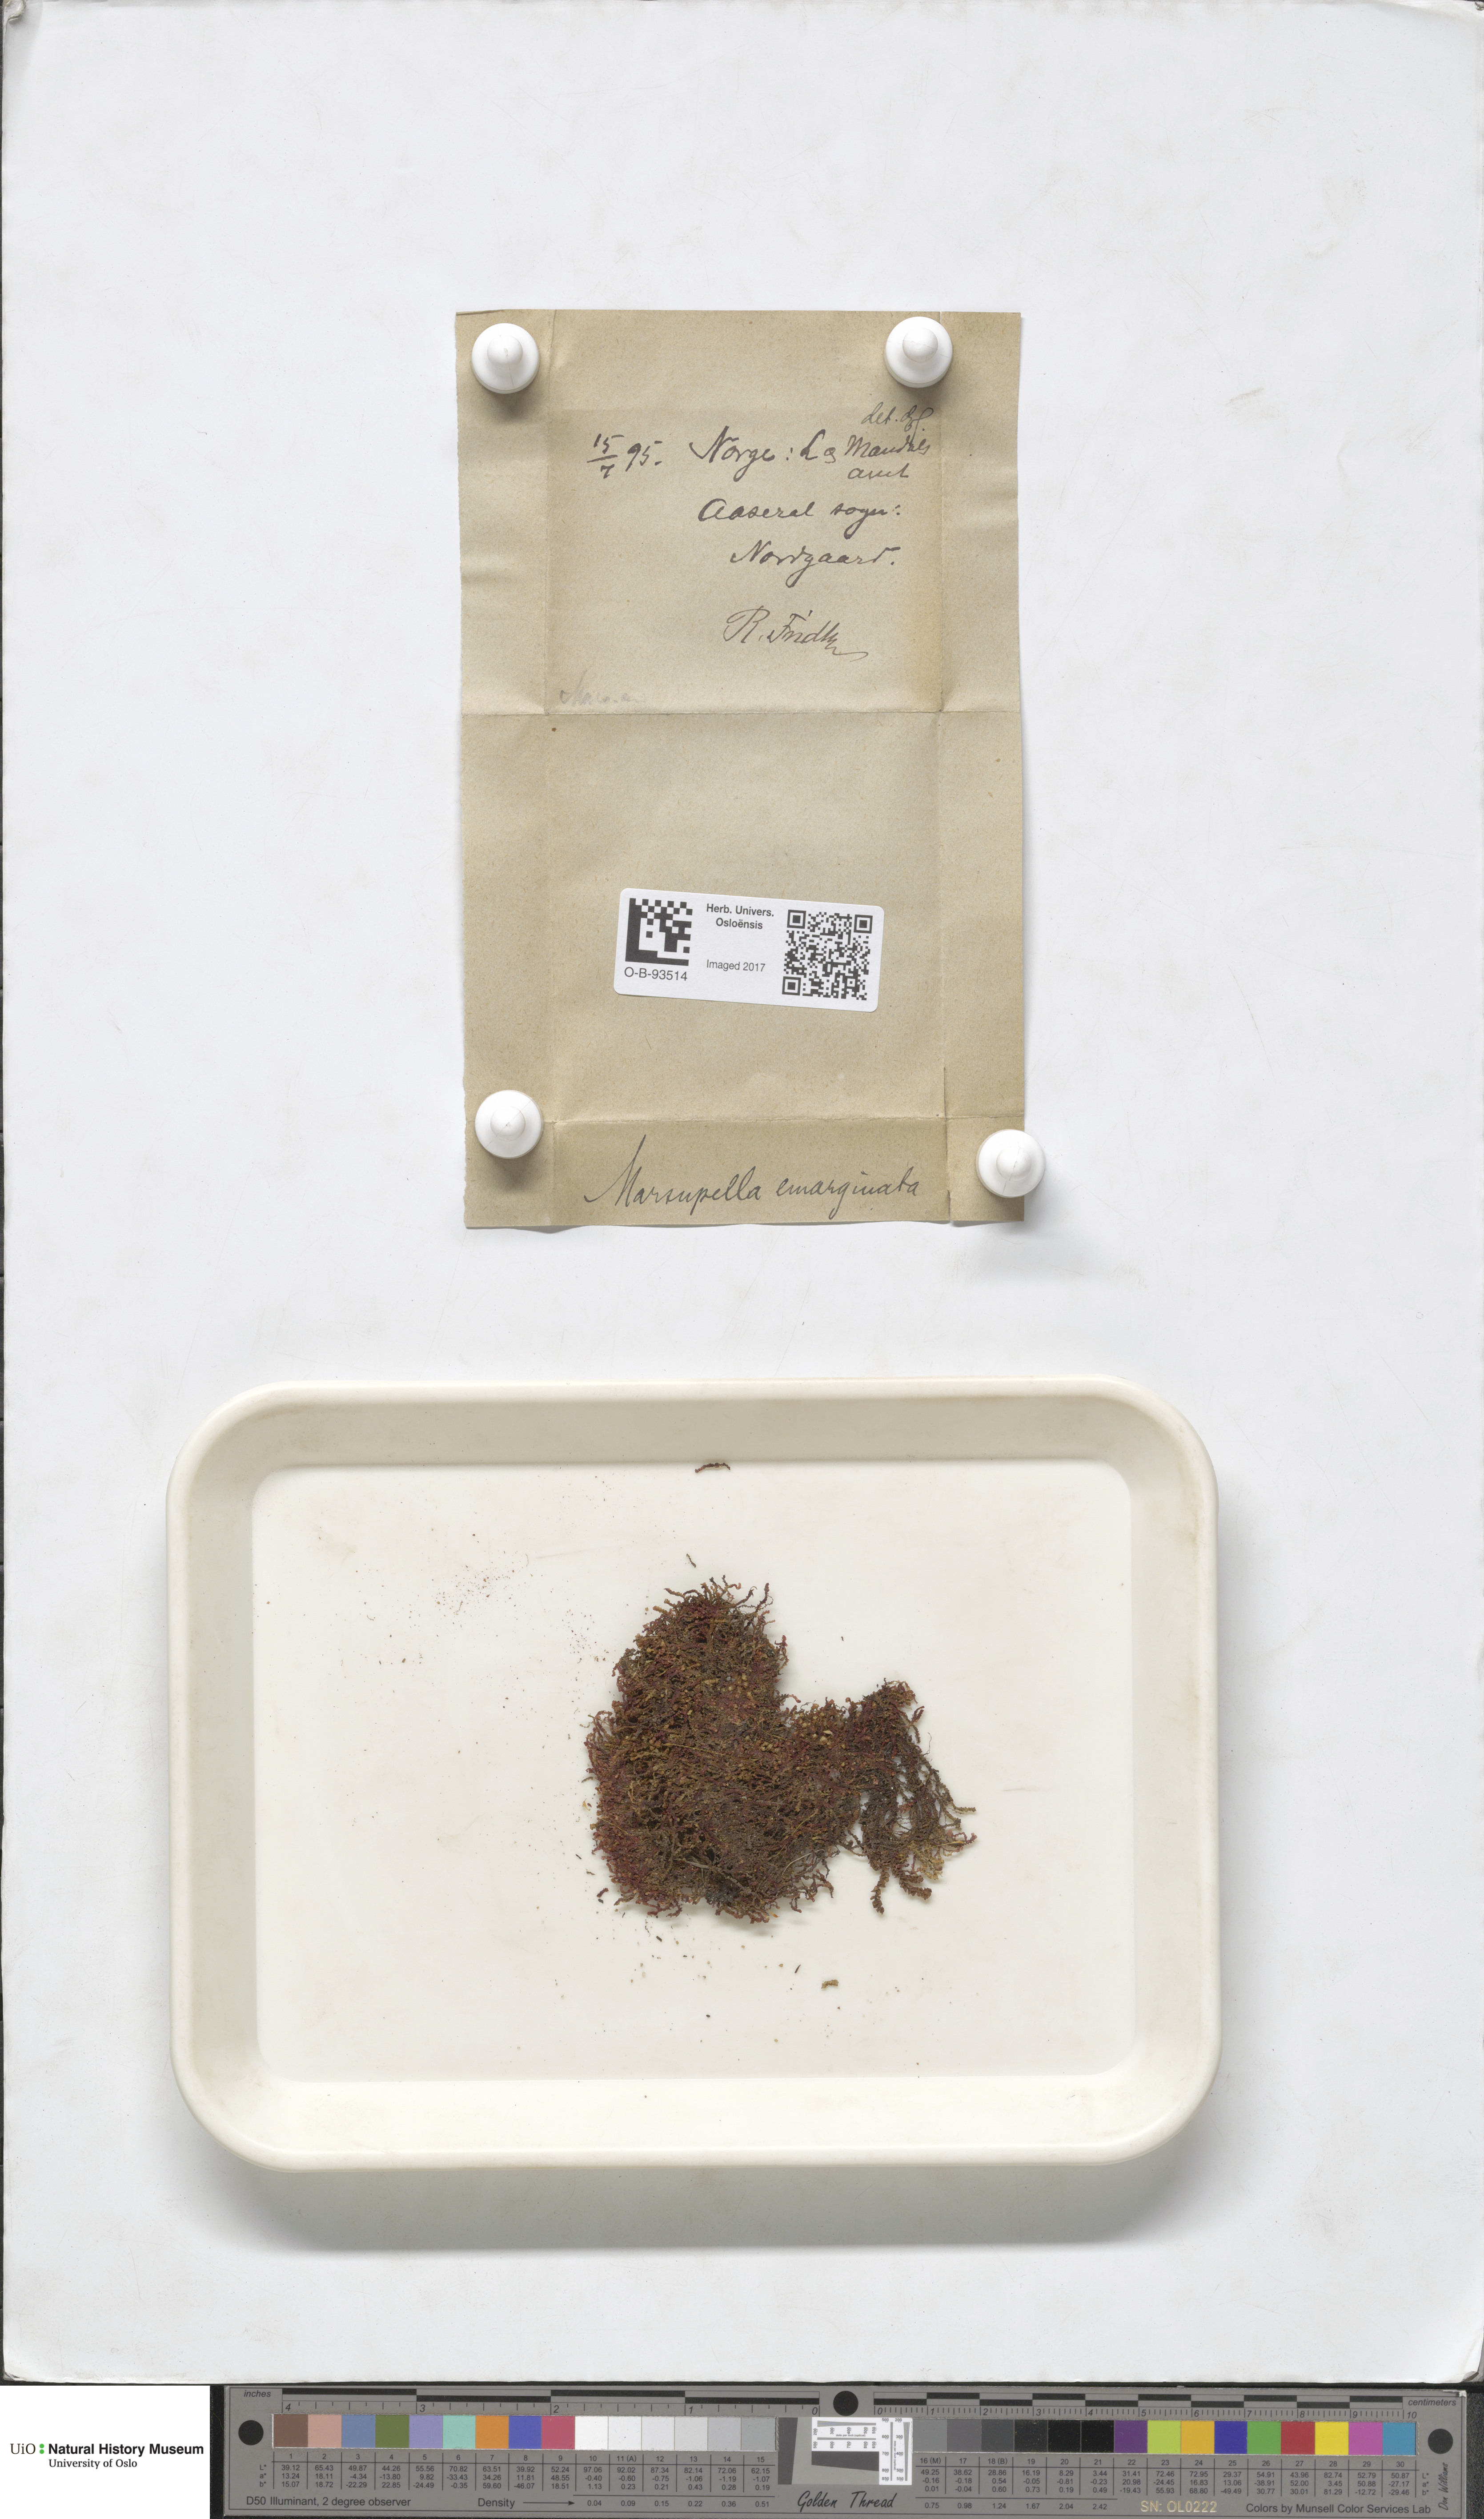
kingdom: Plantae
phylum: Marchantiophyta
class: Jungermanniopsida
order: Jungermanniales
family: Gymnomitriaceae
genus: Marsupella
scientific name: Marsupella emarginata
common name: Notched rustwort
